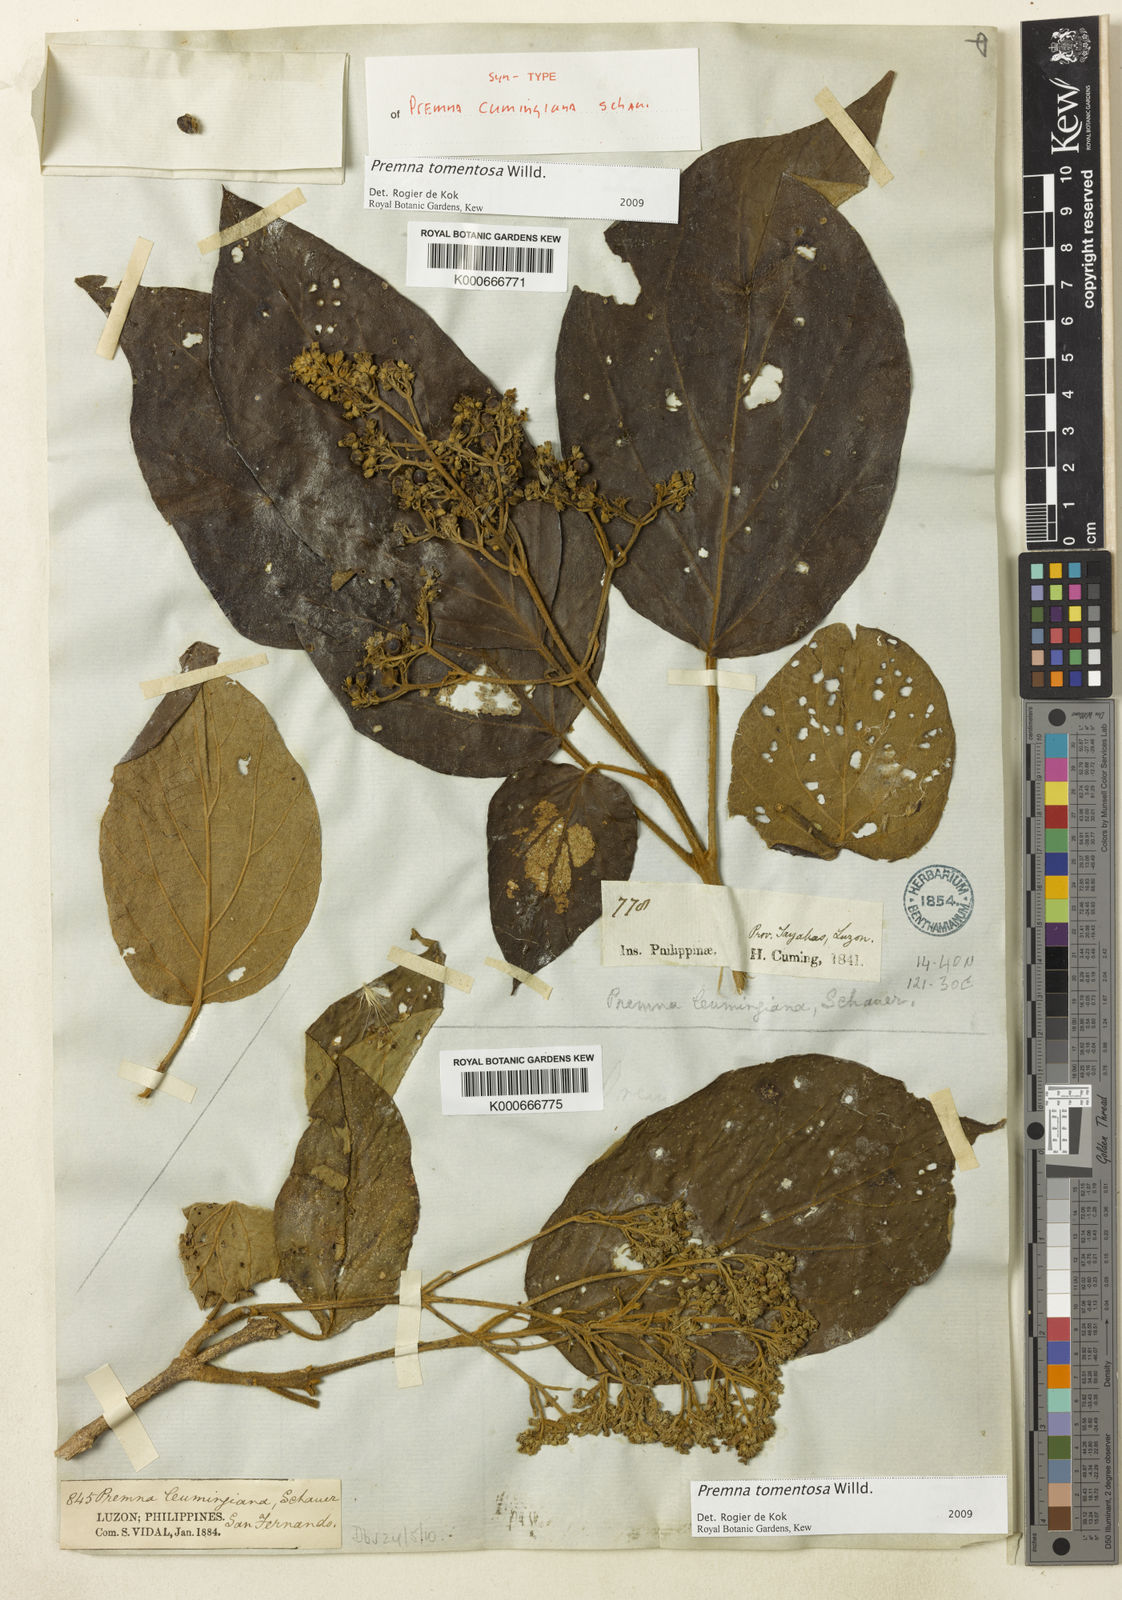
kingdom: Plantae
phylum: Tracheophyta
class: Magnoliopsida
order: Lamiales
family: Lamiaceae
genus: Premna
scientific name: Premna tomentosa
